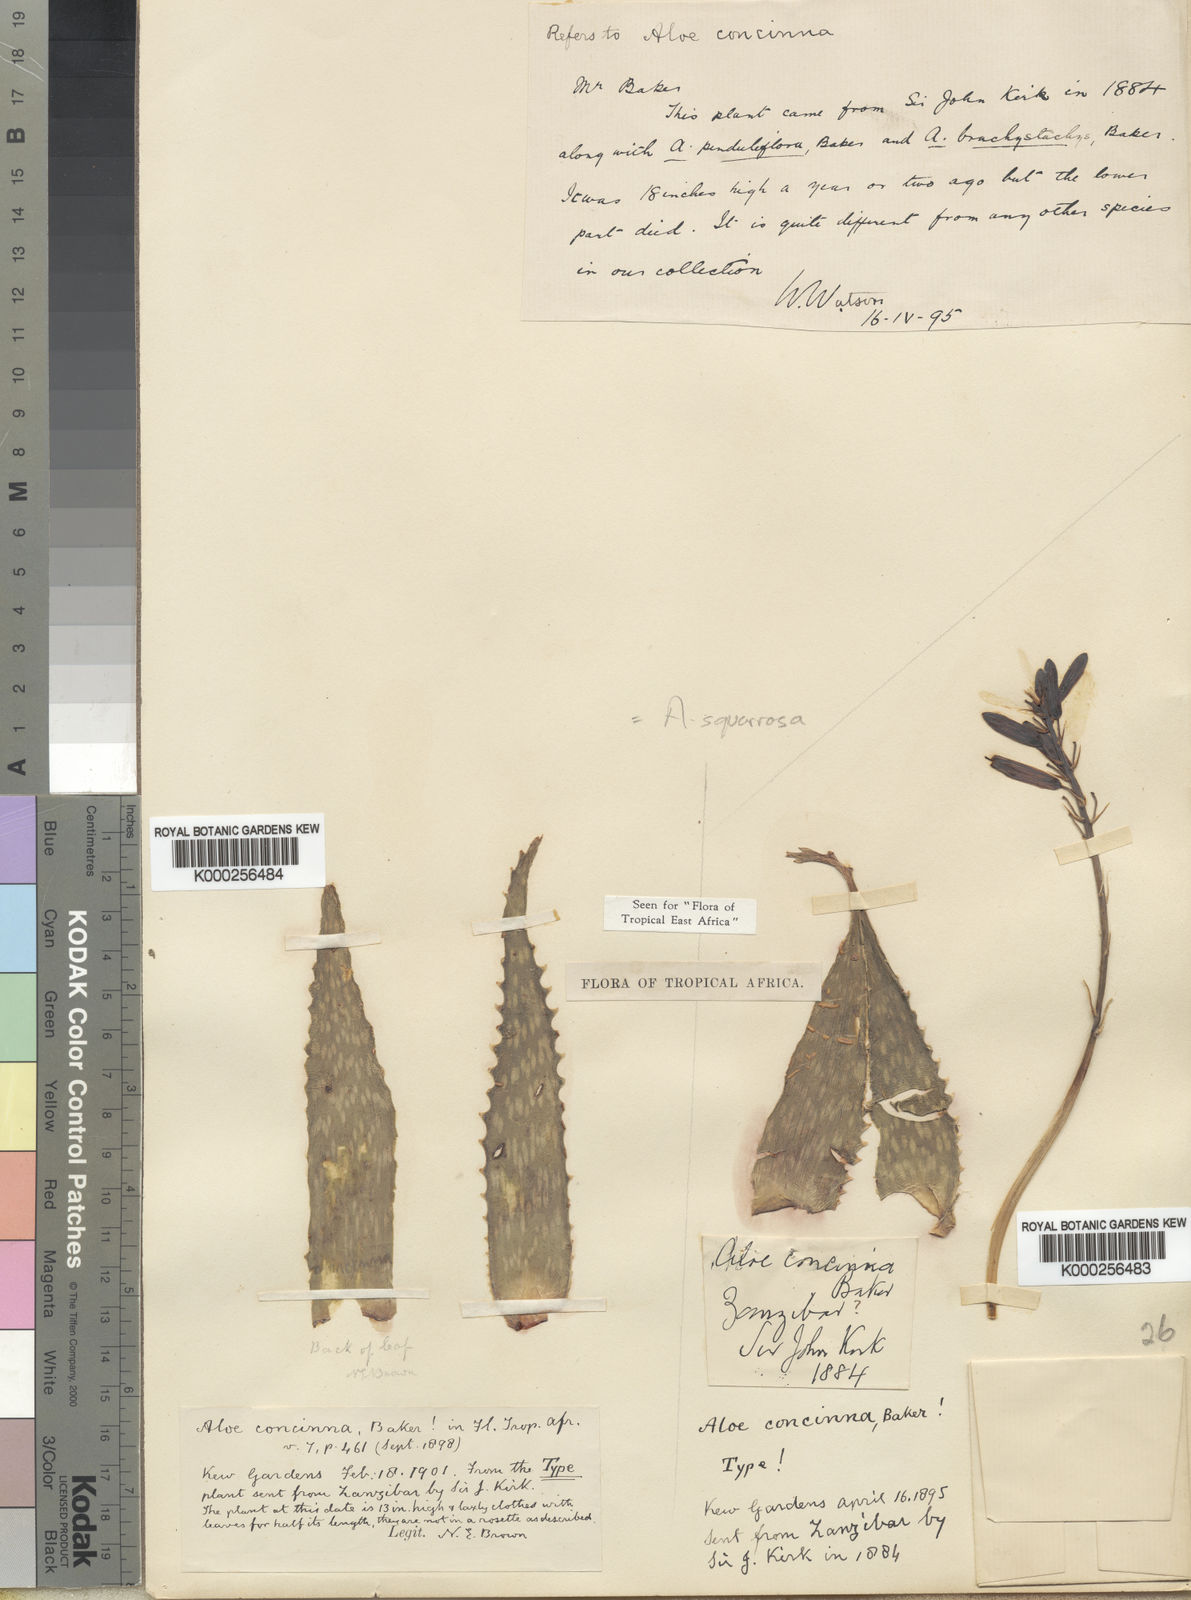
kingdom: Plantae
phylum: Tracheophyta
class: Liliopsida
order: Asparagales
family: Asphodelaceae
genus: Aloe
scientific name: Aloe squarrosa
